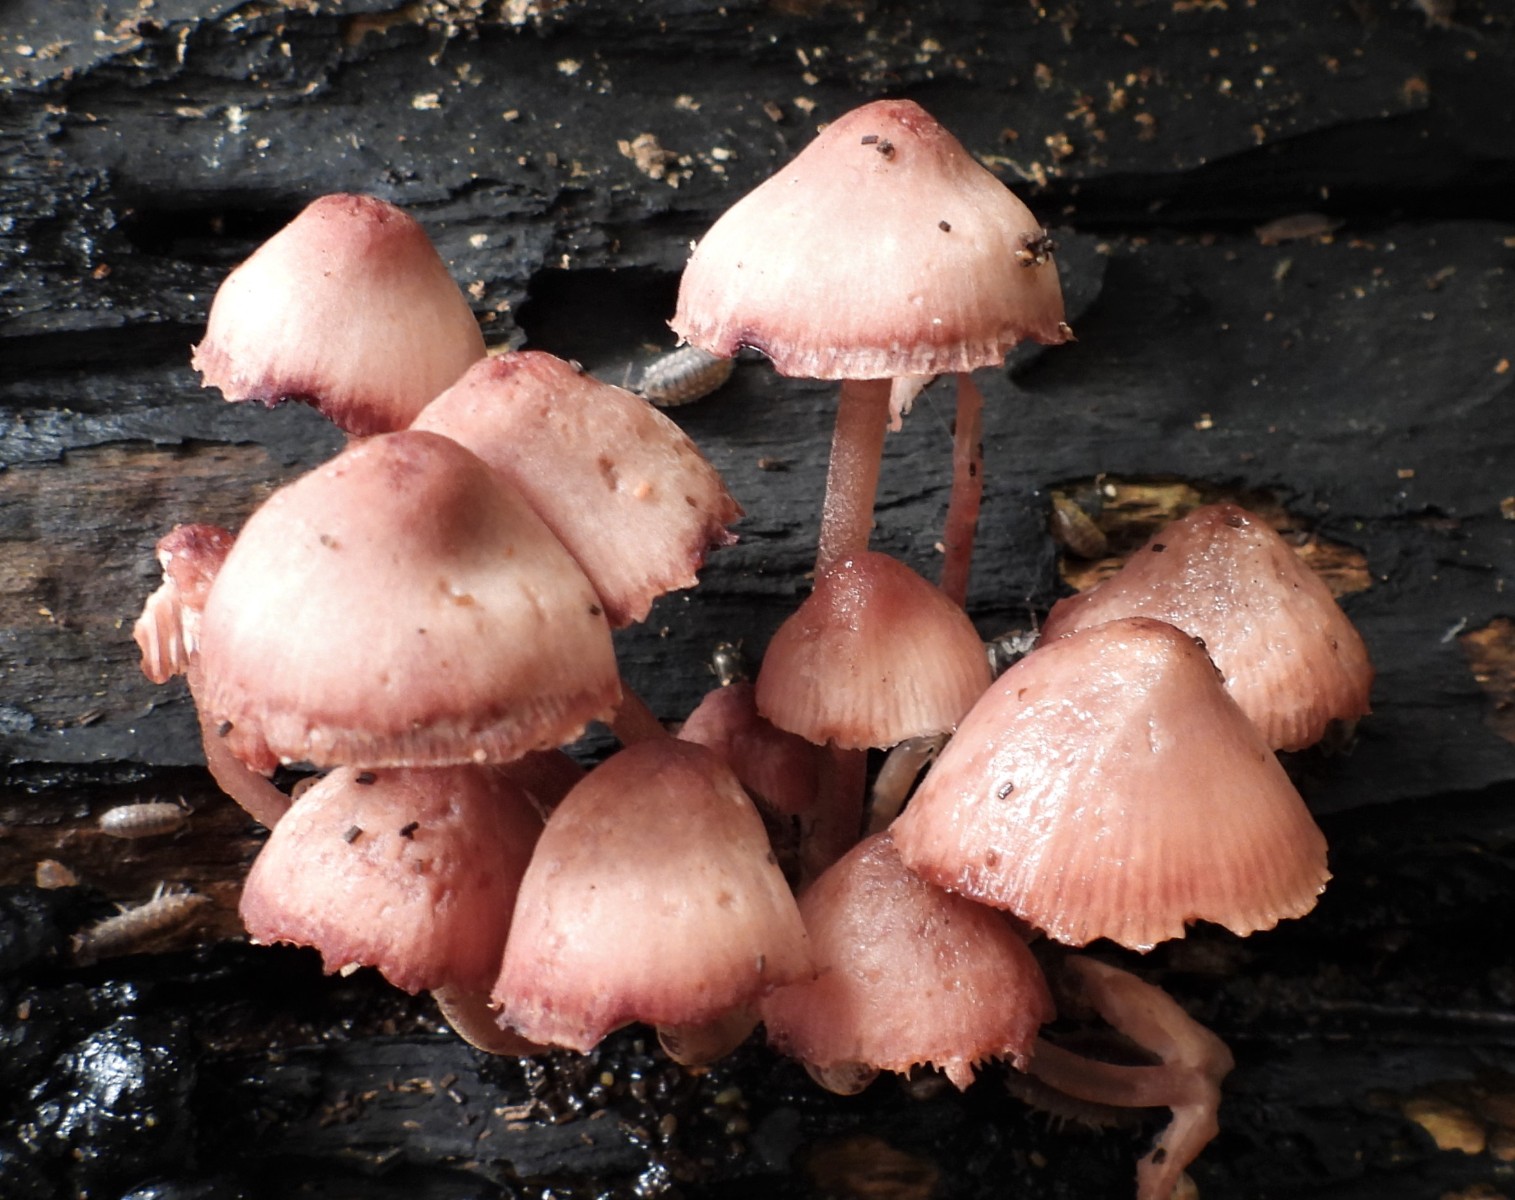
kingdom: Fungi
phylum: Basidiomycota
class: Agaricomycetes
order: Agaricales
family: Mycenaceae
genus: Mycena
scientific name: Mycena haematopus
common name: blødende huesvamp
